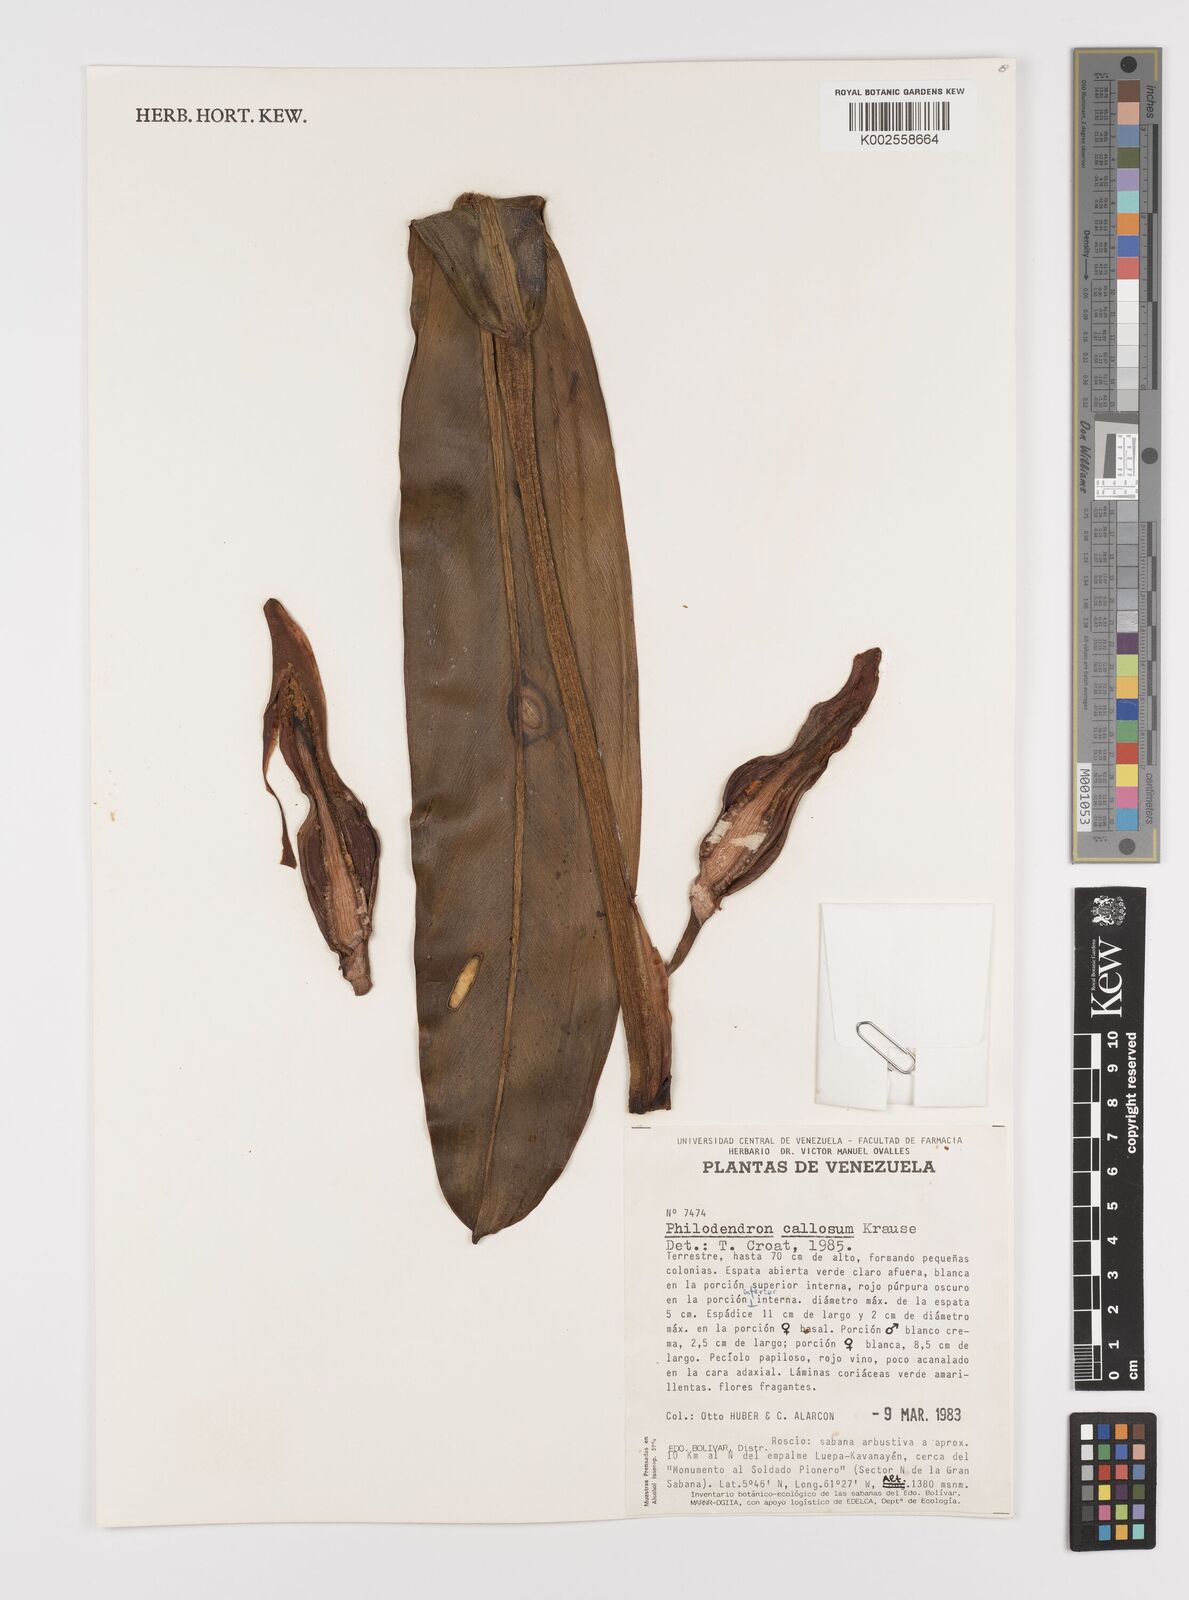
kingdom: Plantae
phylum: Tracheophyta
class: Liliopsida
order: Alismatales
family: Araceae
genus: Philodendron
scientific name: Philodendron callosum
